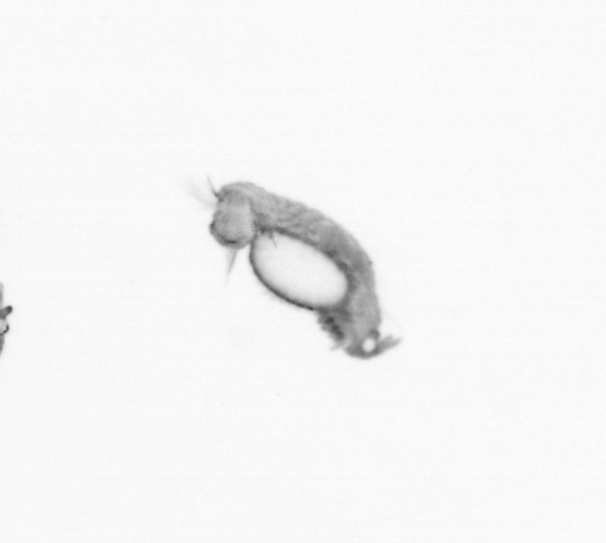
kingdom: Animalia
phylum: Annelida
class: Polychaeta
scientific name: Polychaeta
